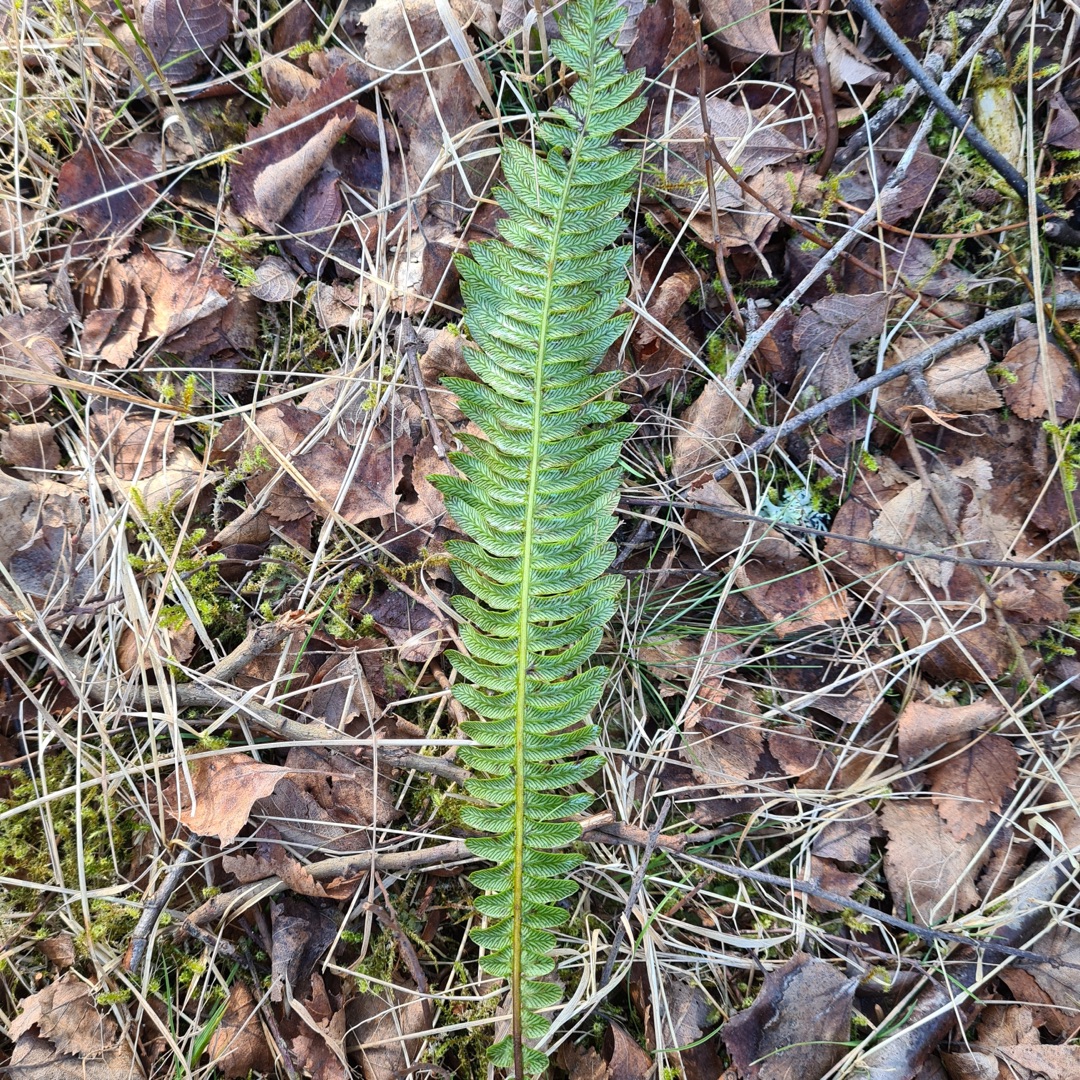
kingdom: Plantae
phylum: Tracheophyta
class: Polypodiopsida
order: Polypodiales
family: Blechnaceae
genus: Struthiopteris
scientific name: Struthiopteris spicant
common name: Kambregne
